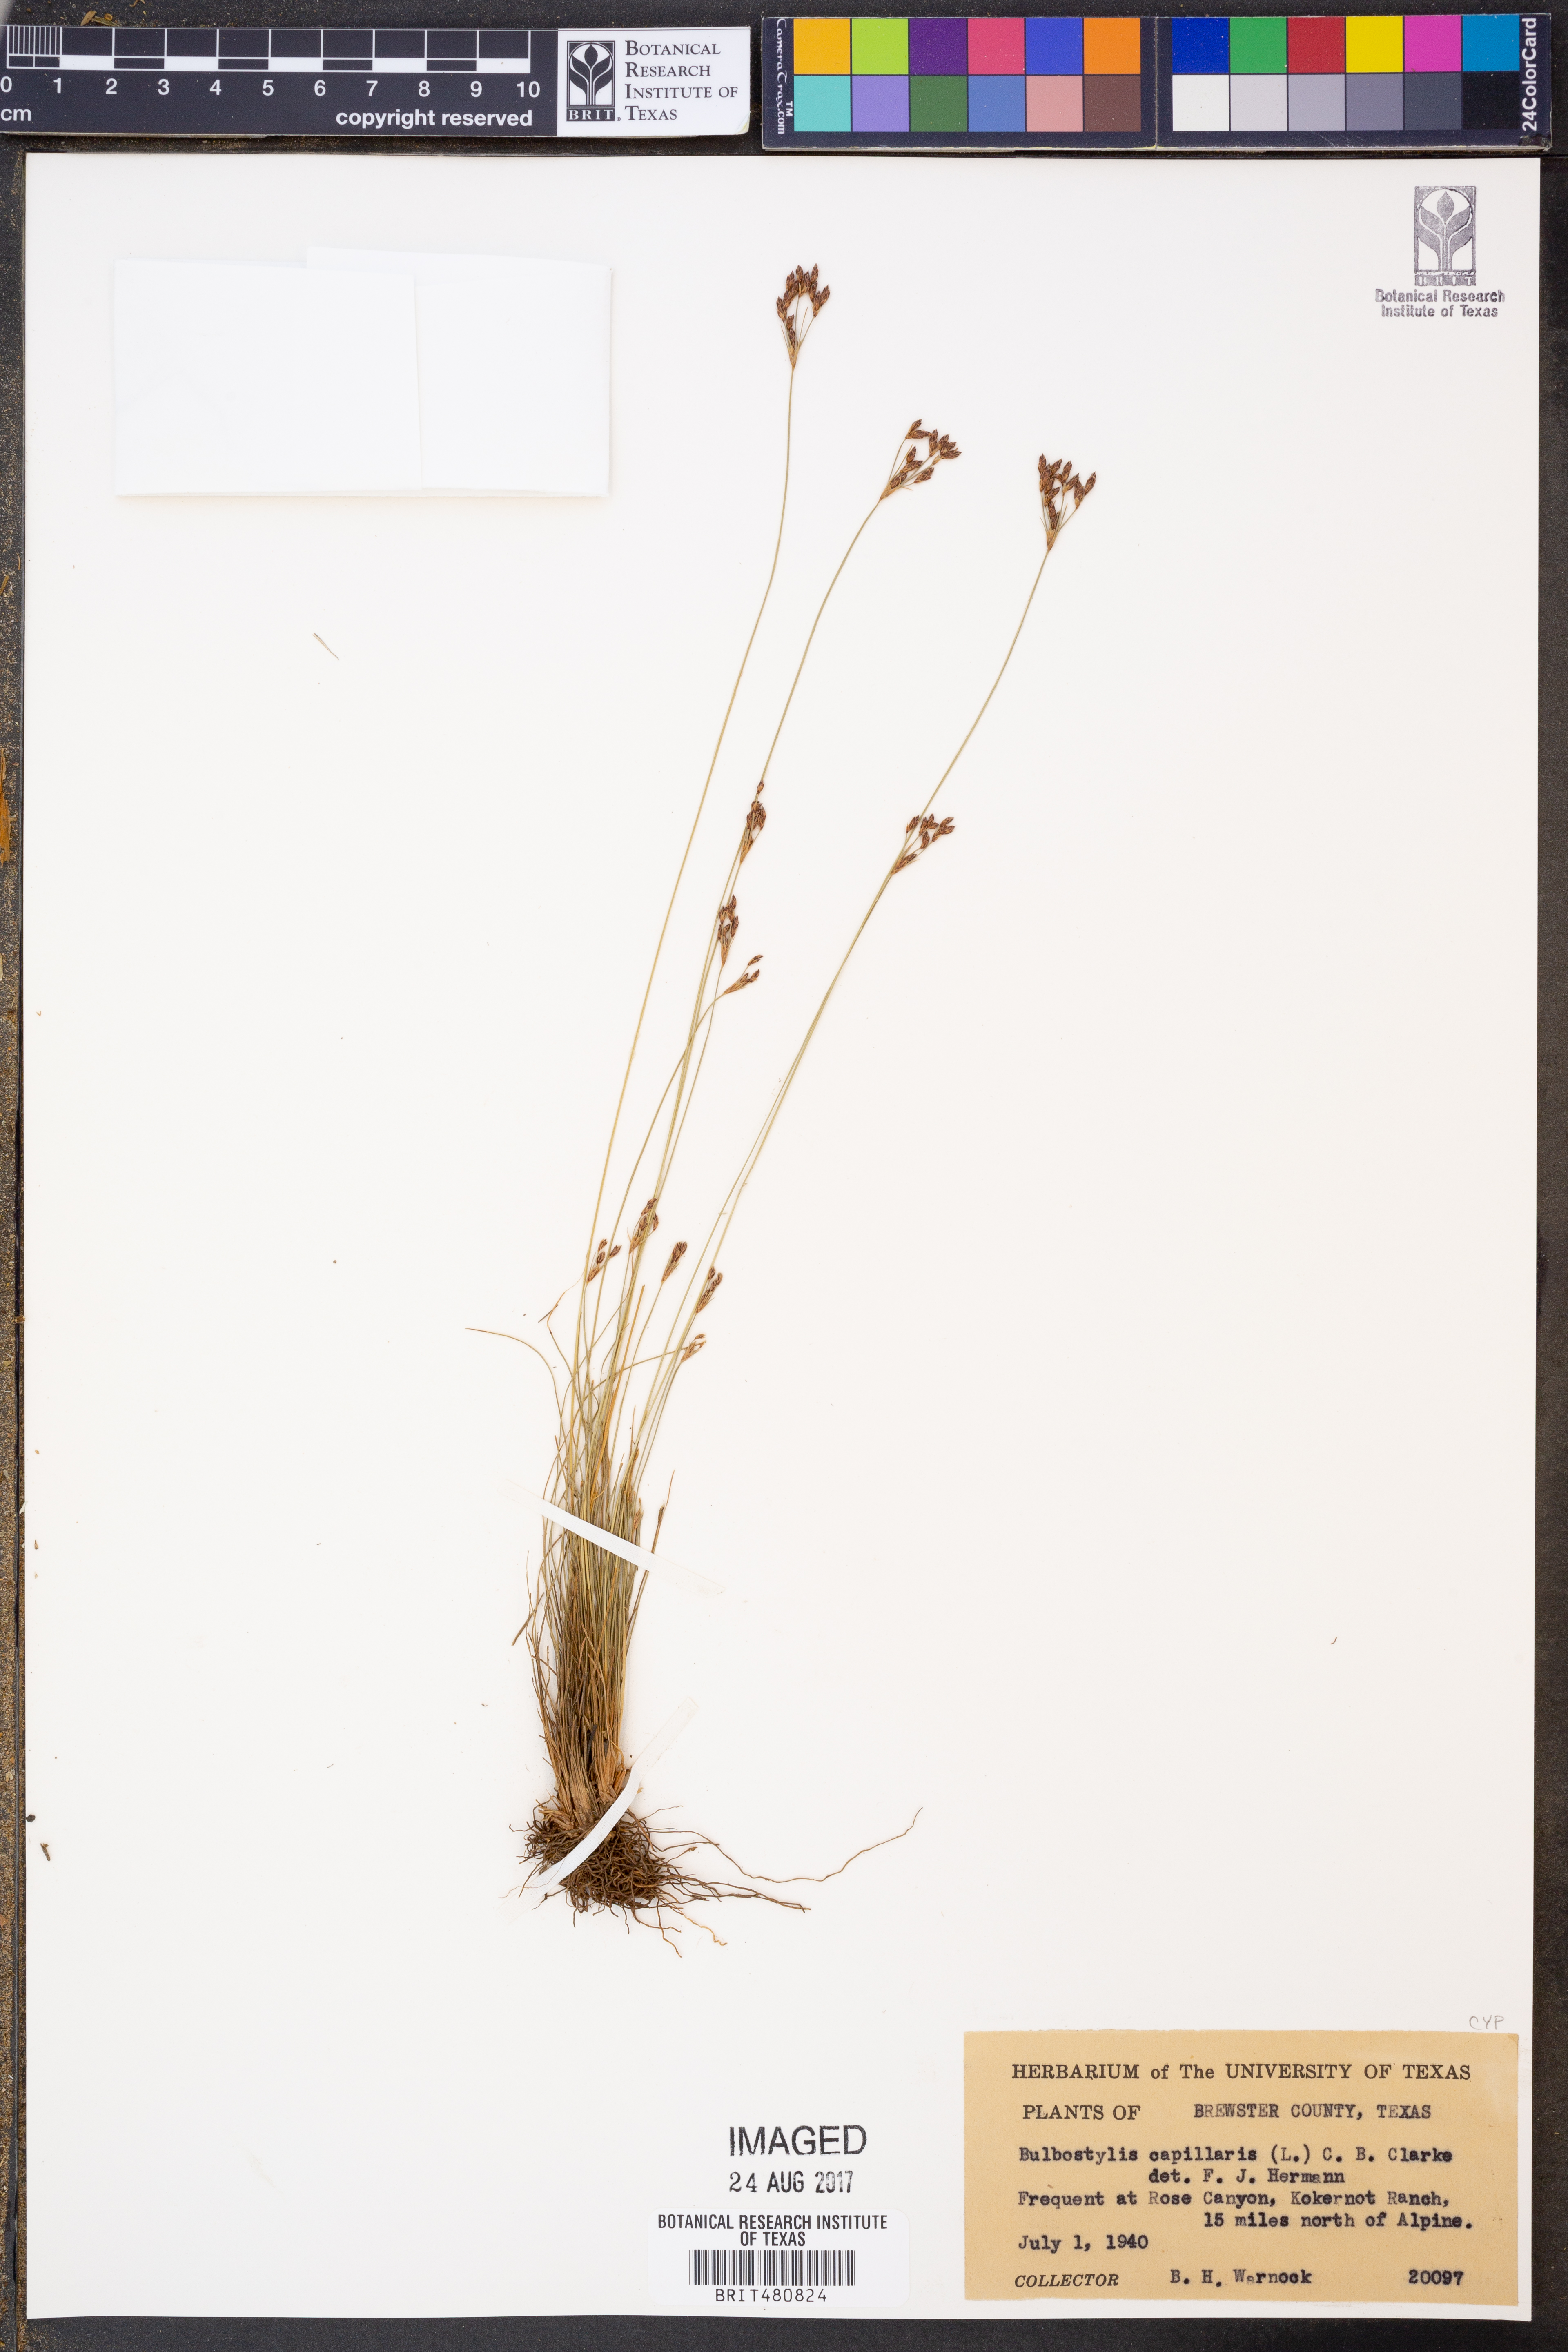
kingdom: Plantae
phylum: Tracheophyta
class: Liliopsida
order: Poales
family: Cyperaceae
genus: Bulbostylis
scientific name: Bulbostylis capillaris
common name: Densetuft hairsedge
